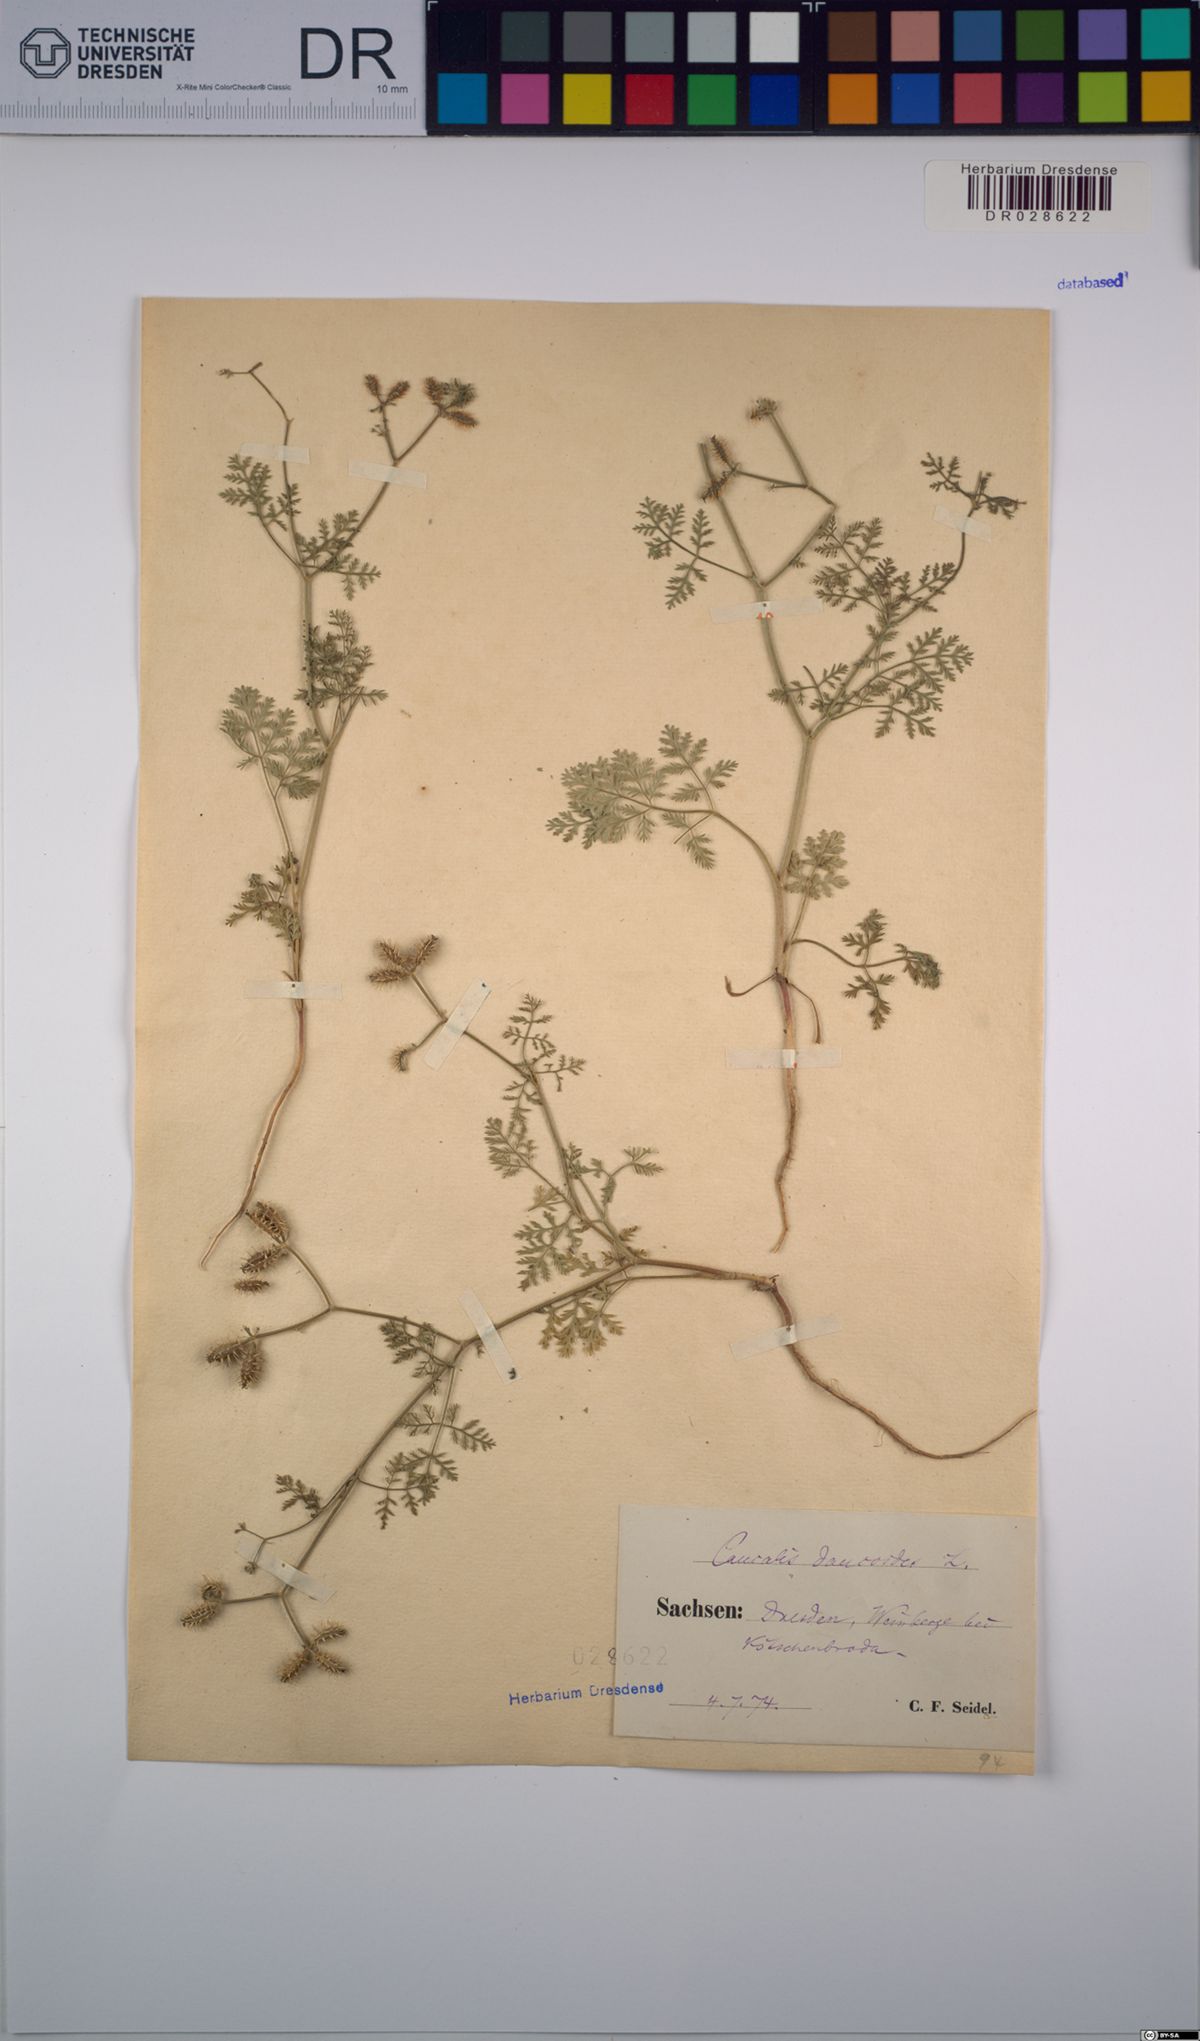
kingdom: Plantae
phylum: Tracheophyta
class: Magnoliopsida
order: Apiales
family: Apiaceae
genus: Caucalis
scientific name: Caucalis platycarpos
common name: Small bur-parsley
